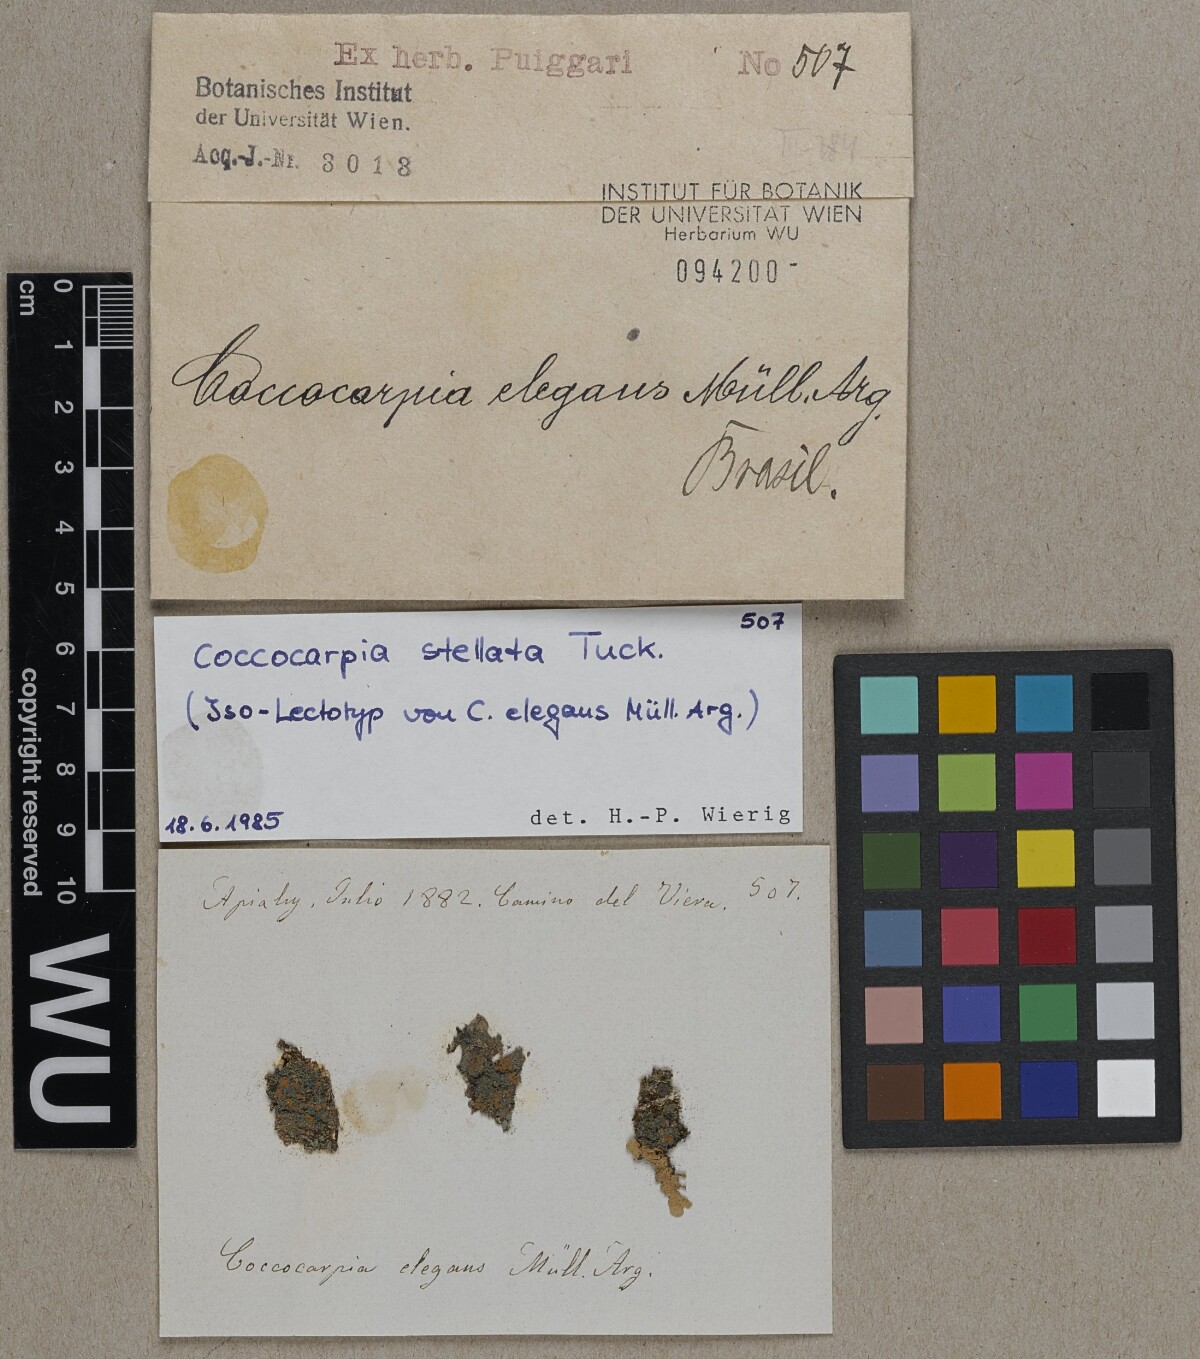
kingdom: Fungi
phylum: Ascomycota
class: Lecanoromycetes
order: Peltigerales
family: Coccocarpiaceae
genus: Coccocarpia
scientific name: Coccocarpia
